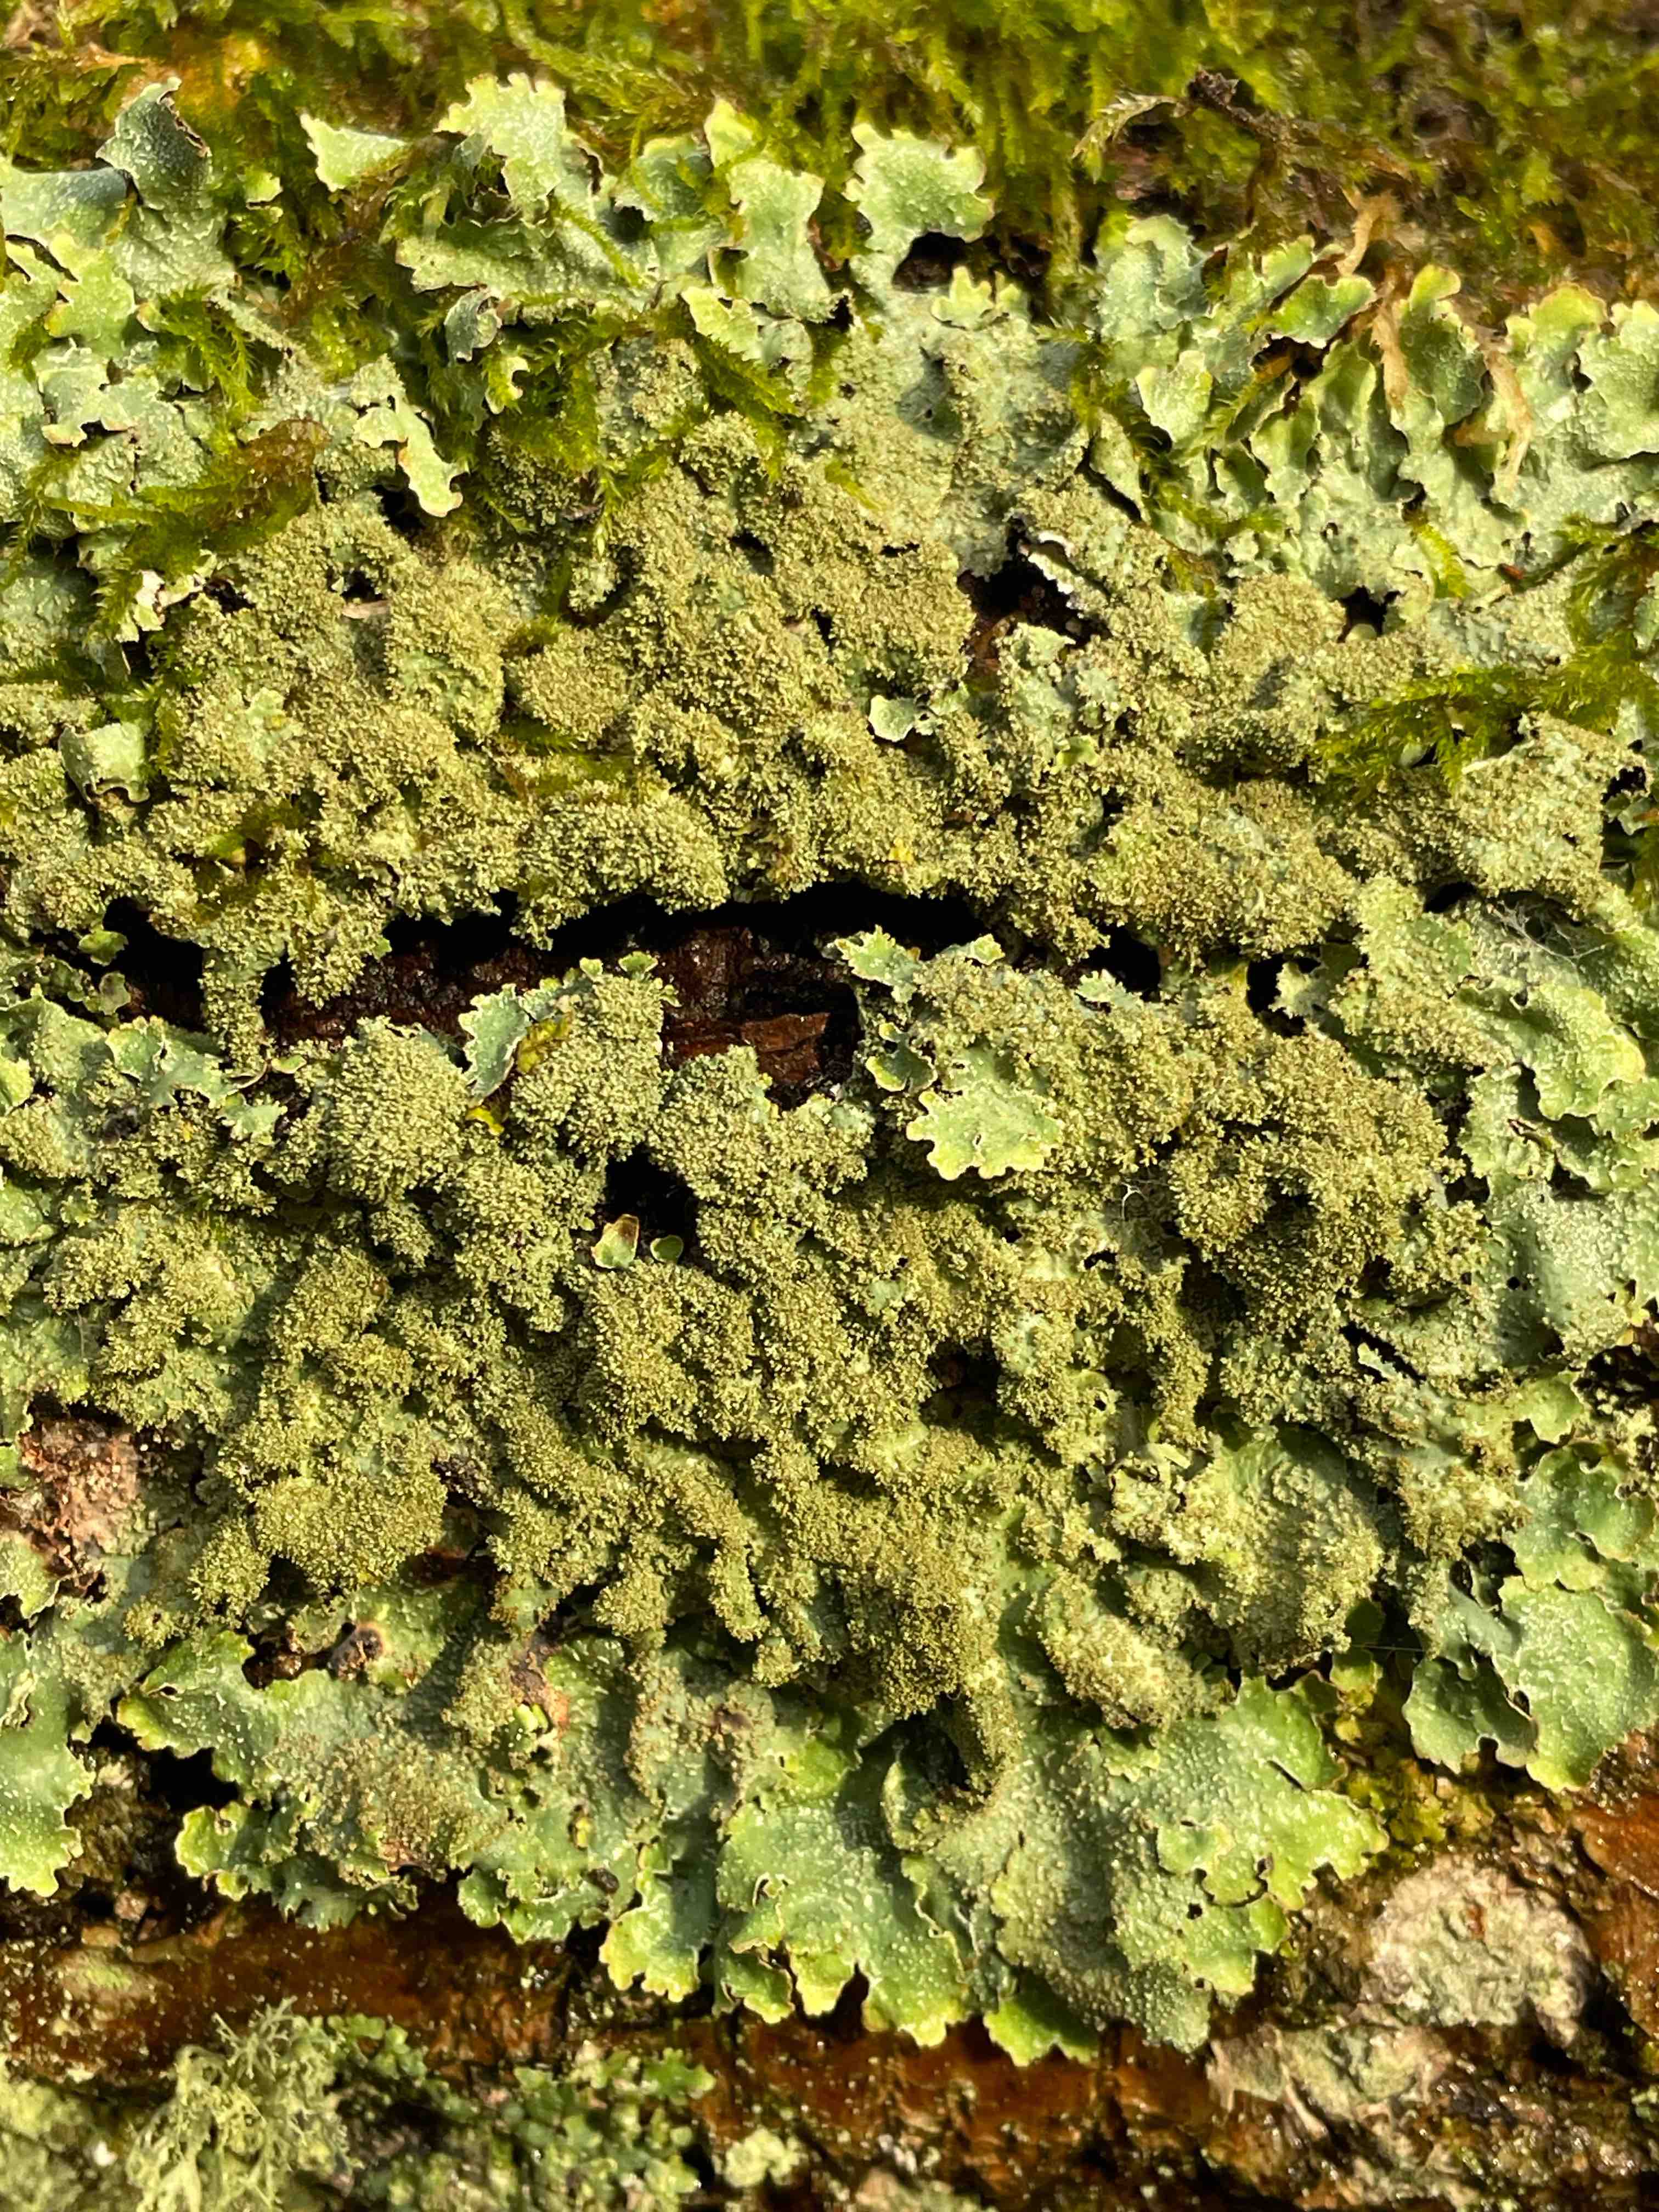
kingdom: Fungi
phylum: Ascomycota
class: Lecanoromycetes
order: Lecanorales
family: Parmeliaceae
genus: Parmelia
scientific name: Parmelia
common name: farve-skållav
